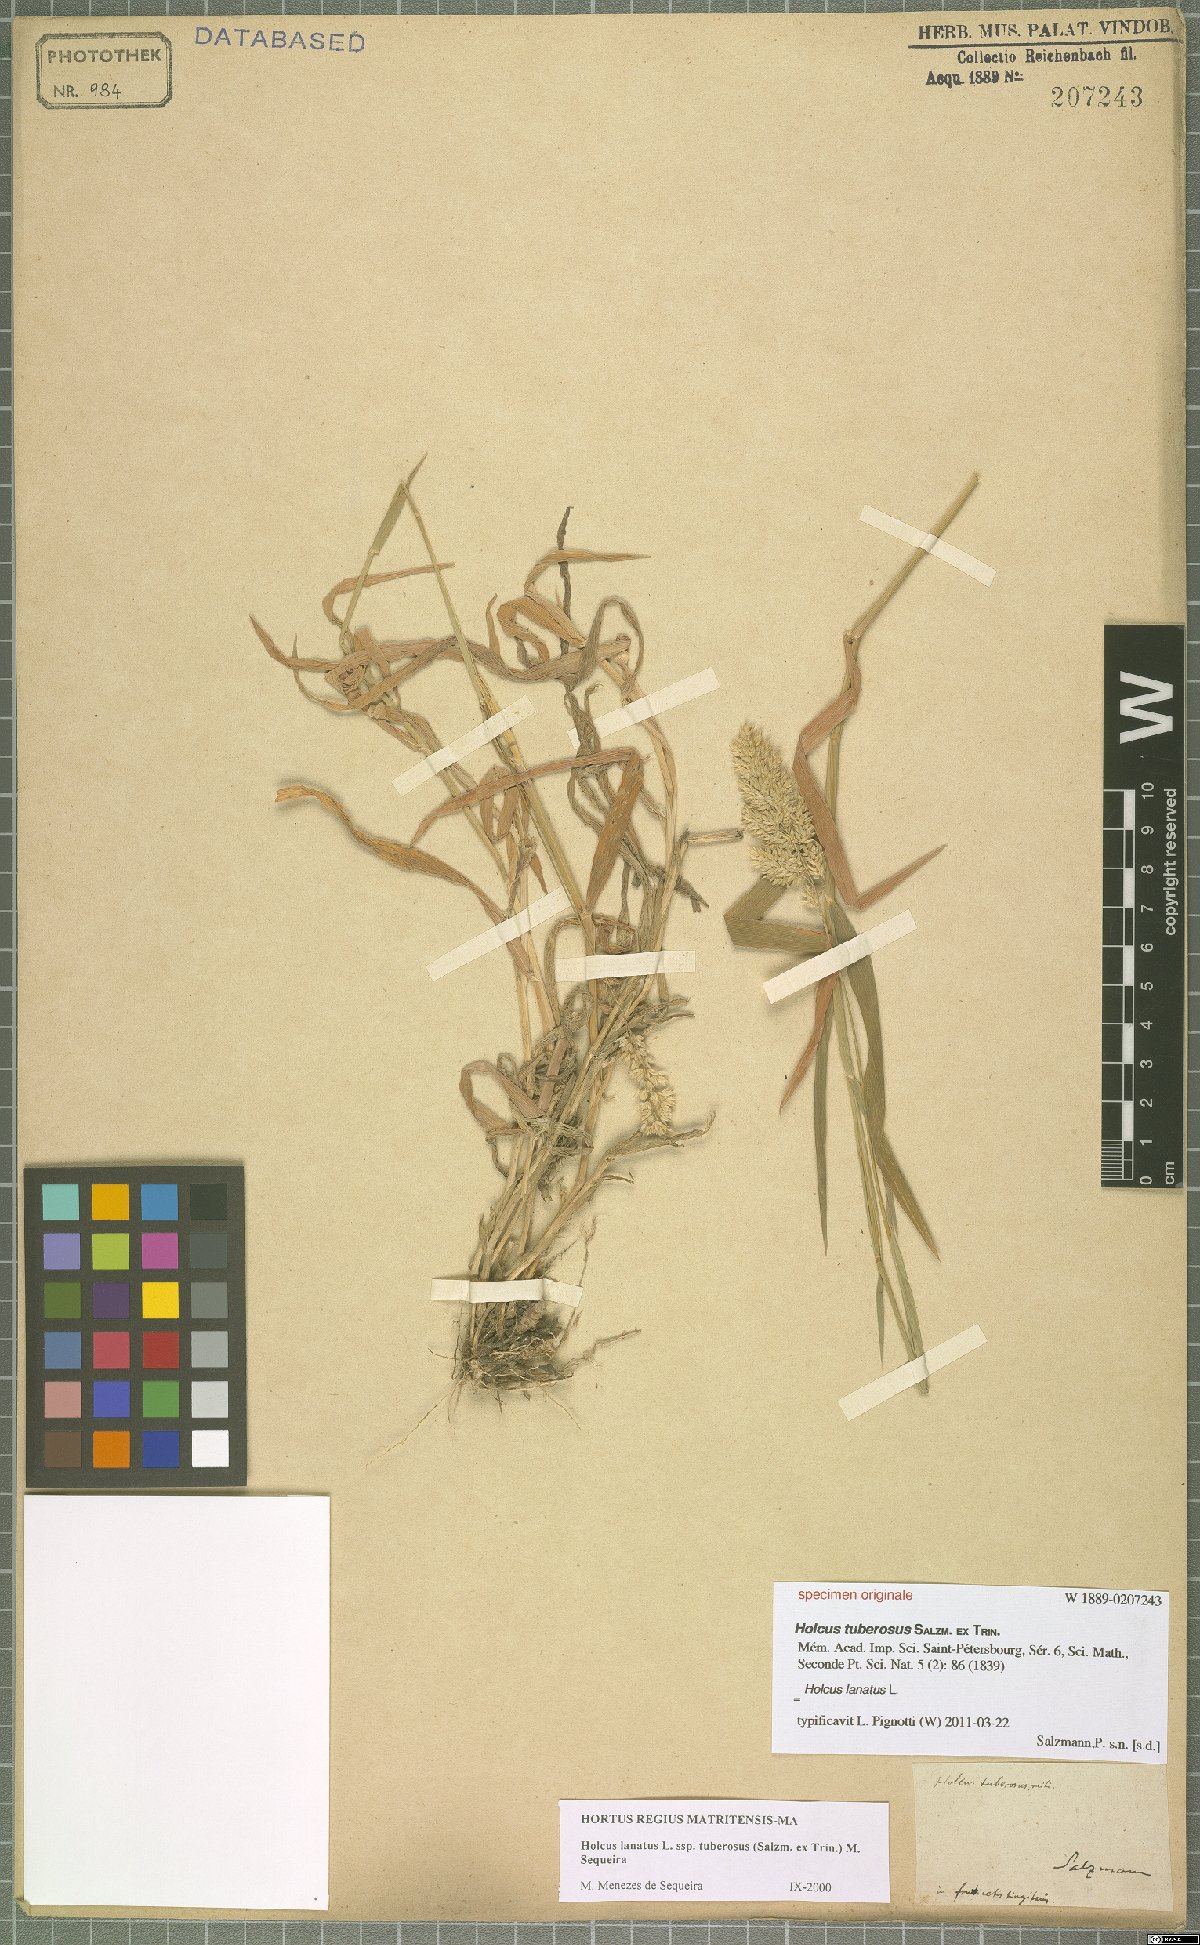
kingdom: Plantae
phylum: Tracheophyta
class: Liliopsida
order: Poales
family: Poaceae
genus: Holcus
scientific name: Holcus lanatus
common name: Yorkshire-fog
